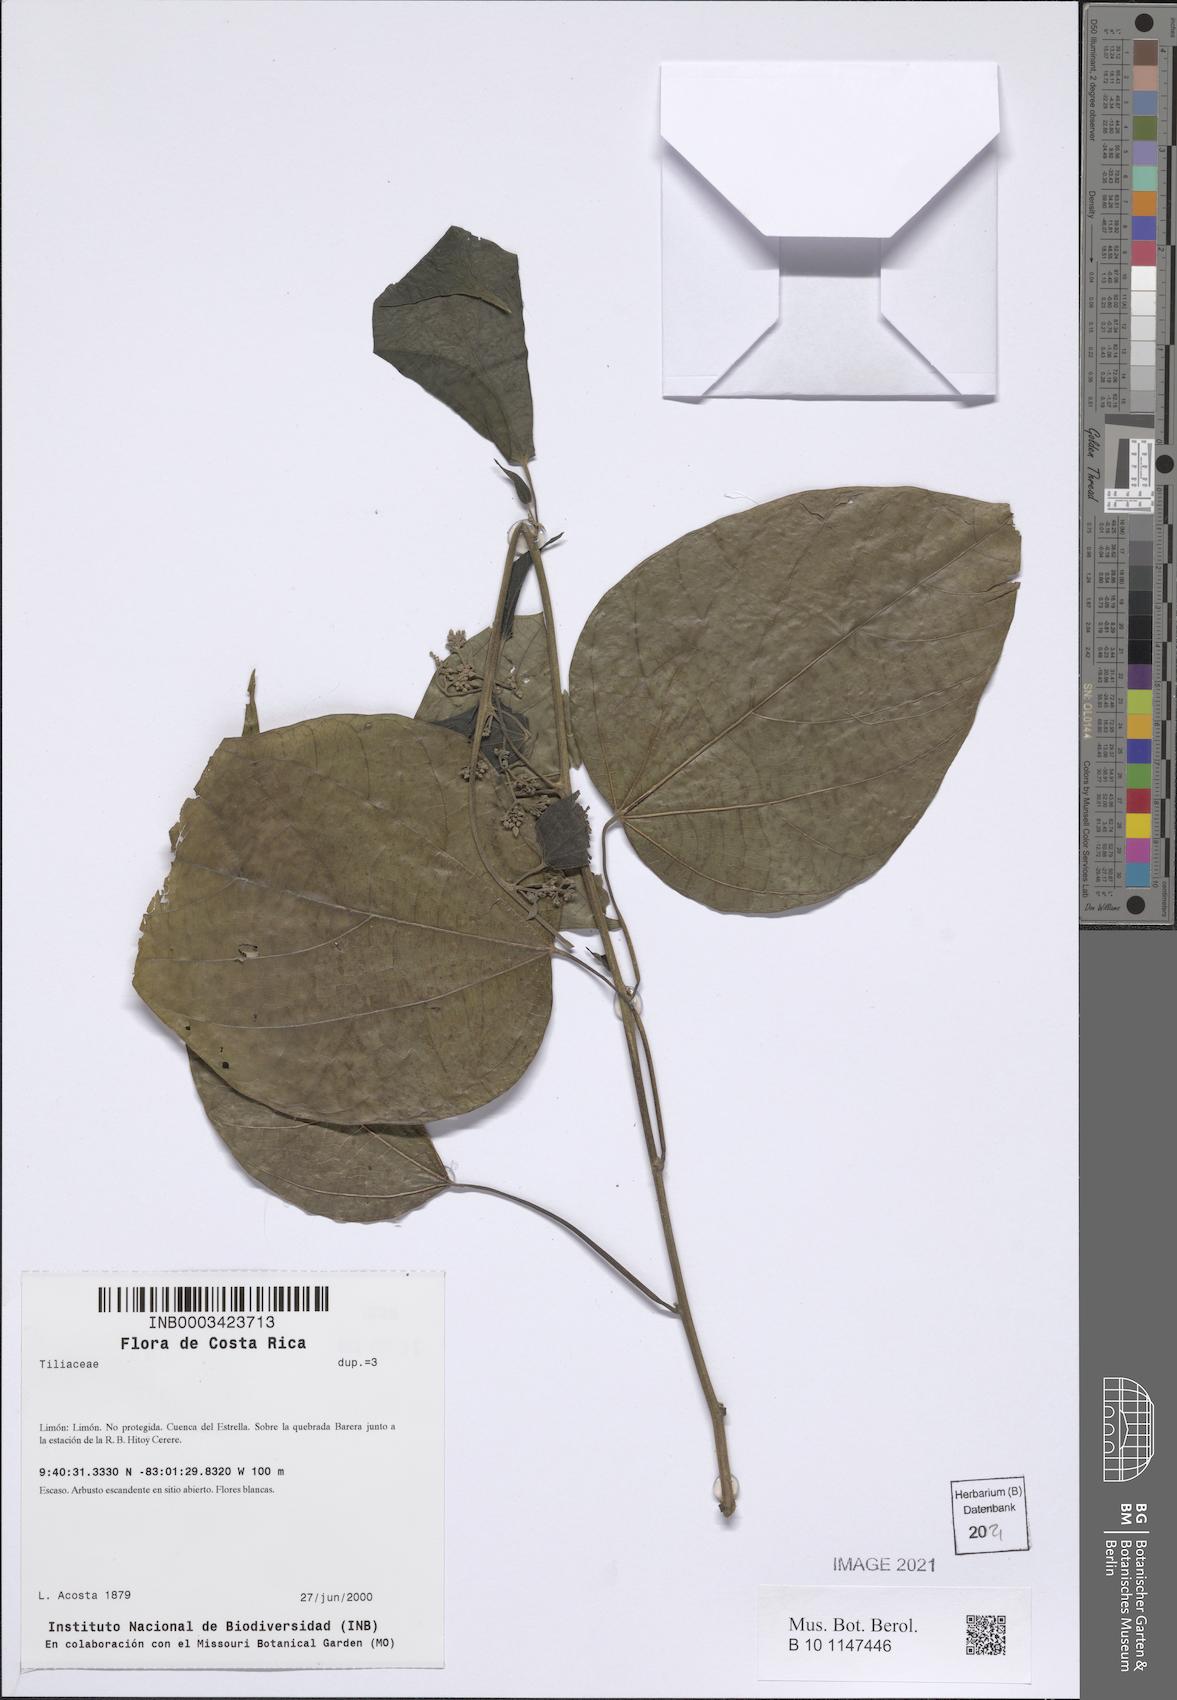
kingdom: Plantae
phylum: Tracheophyta
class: Magnoliopsida
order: Malvales
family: Tiliaceae
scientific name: Tiliaceae
